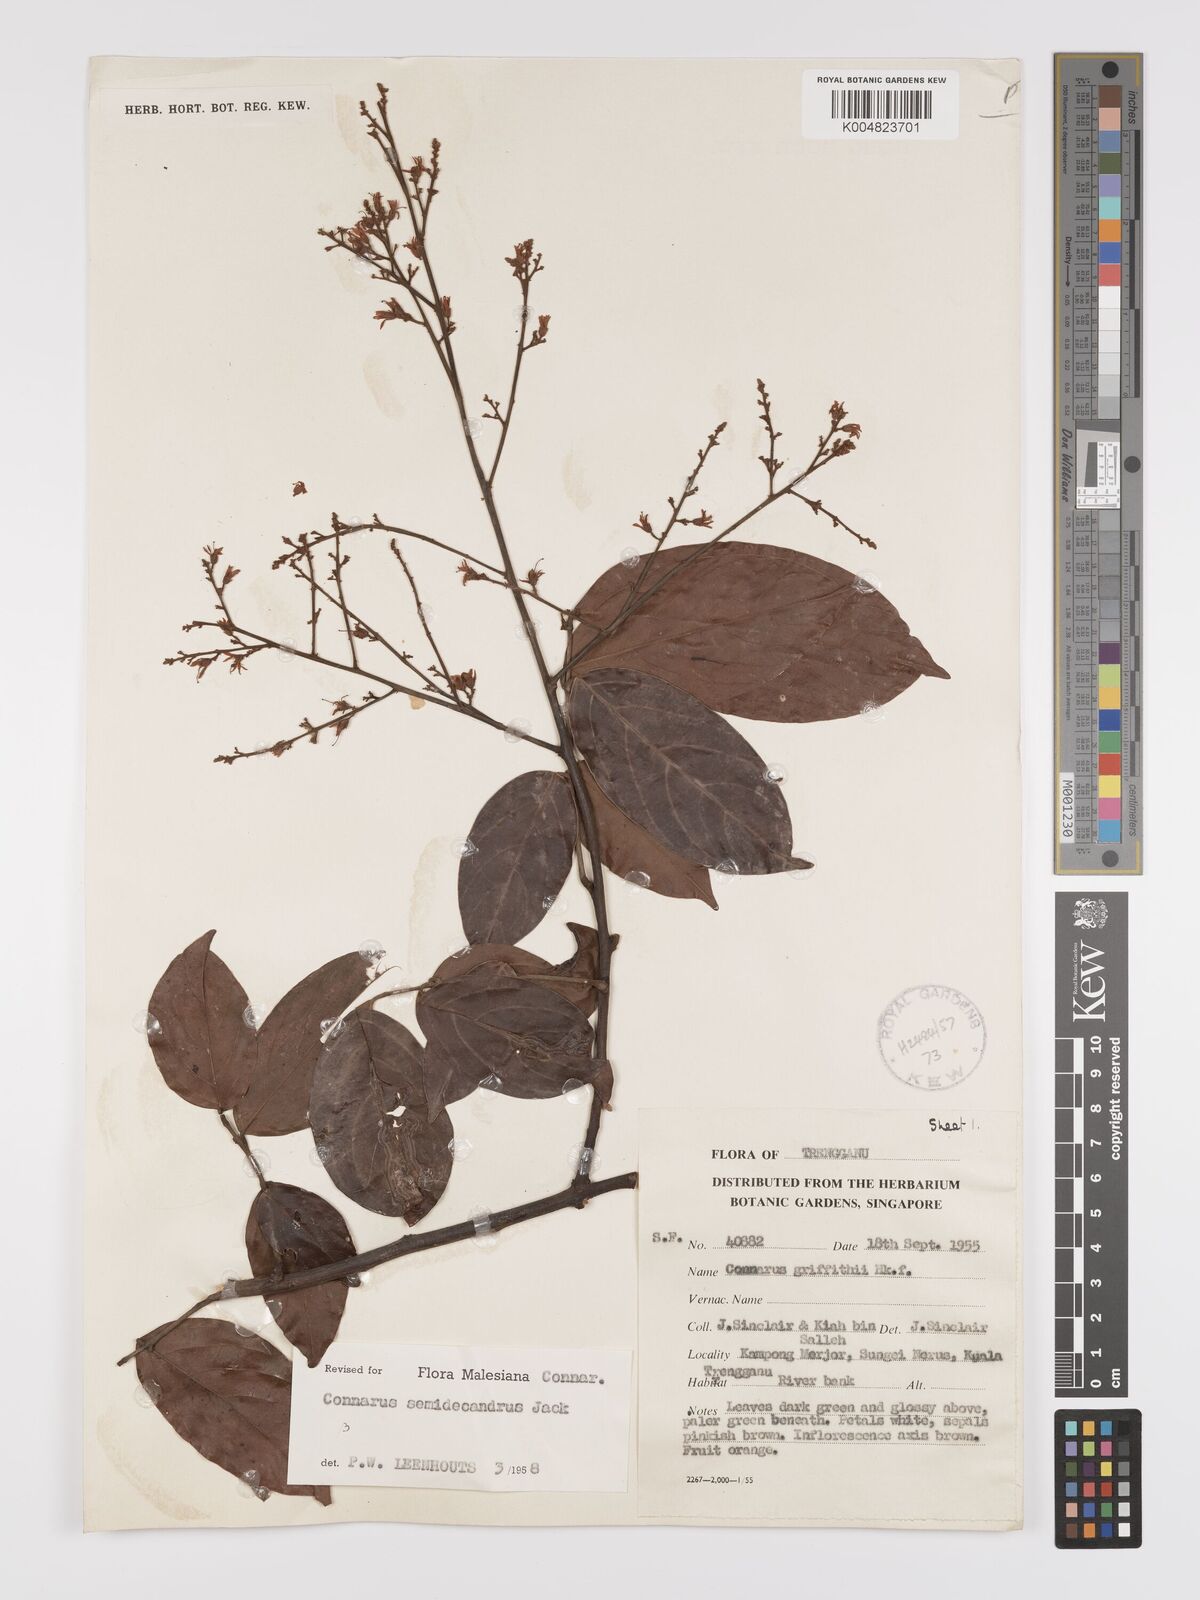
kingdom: Plantae
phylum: Tracheophyta
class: Magnoliopsida
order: Oxalidales
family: Connaraceae
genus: Connarus
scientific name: Connarus semidecandrus
